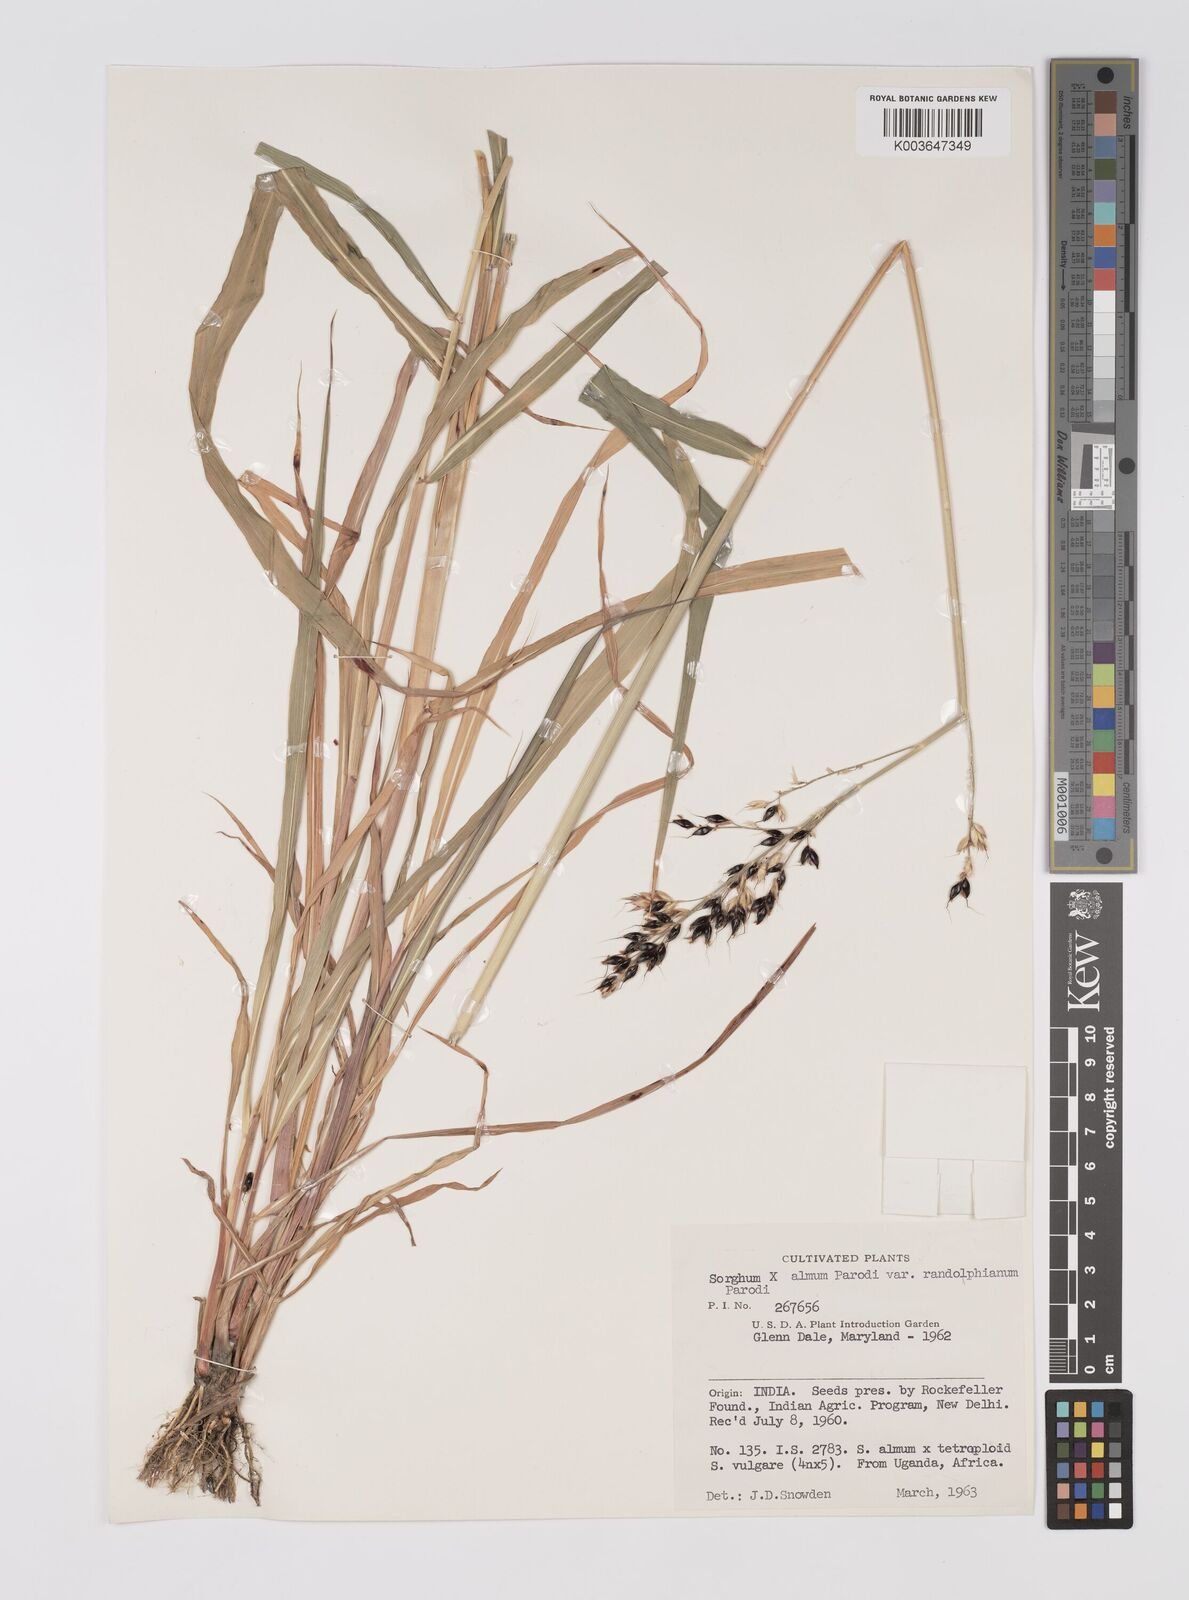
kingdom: Plantae
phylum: Tracheophyta
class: Liliopsida
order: Poales
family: Poaceae
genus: Sorghum
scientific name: Sorghum almum
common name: Columbus grass
